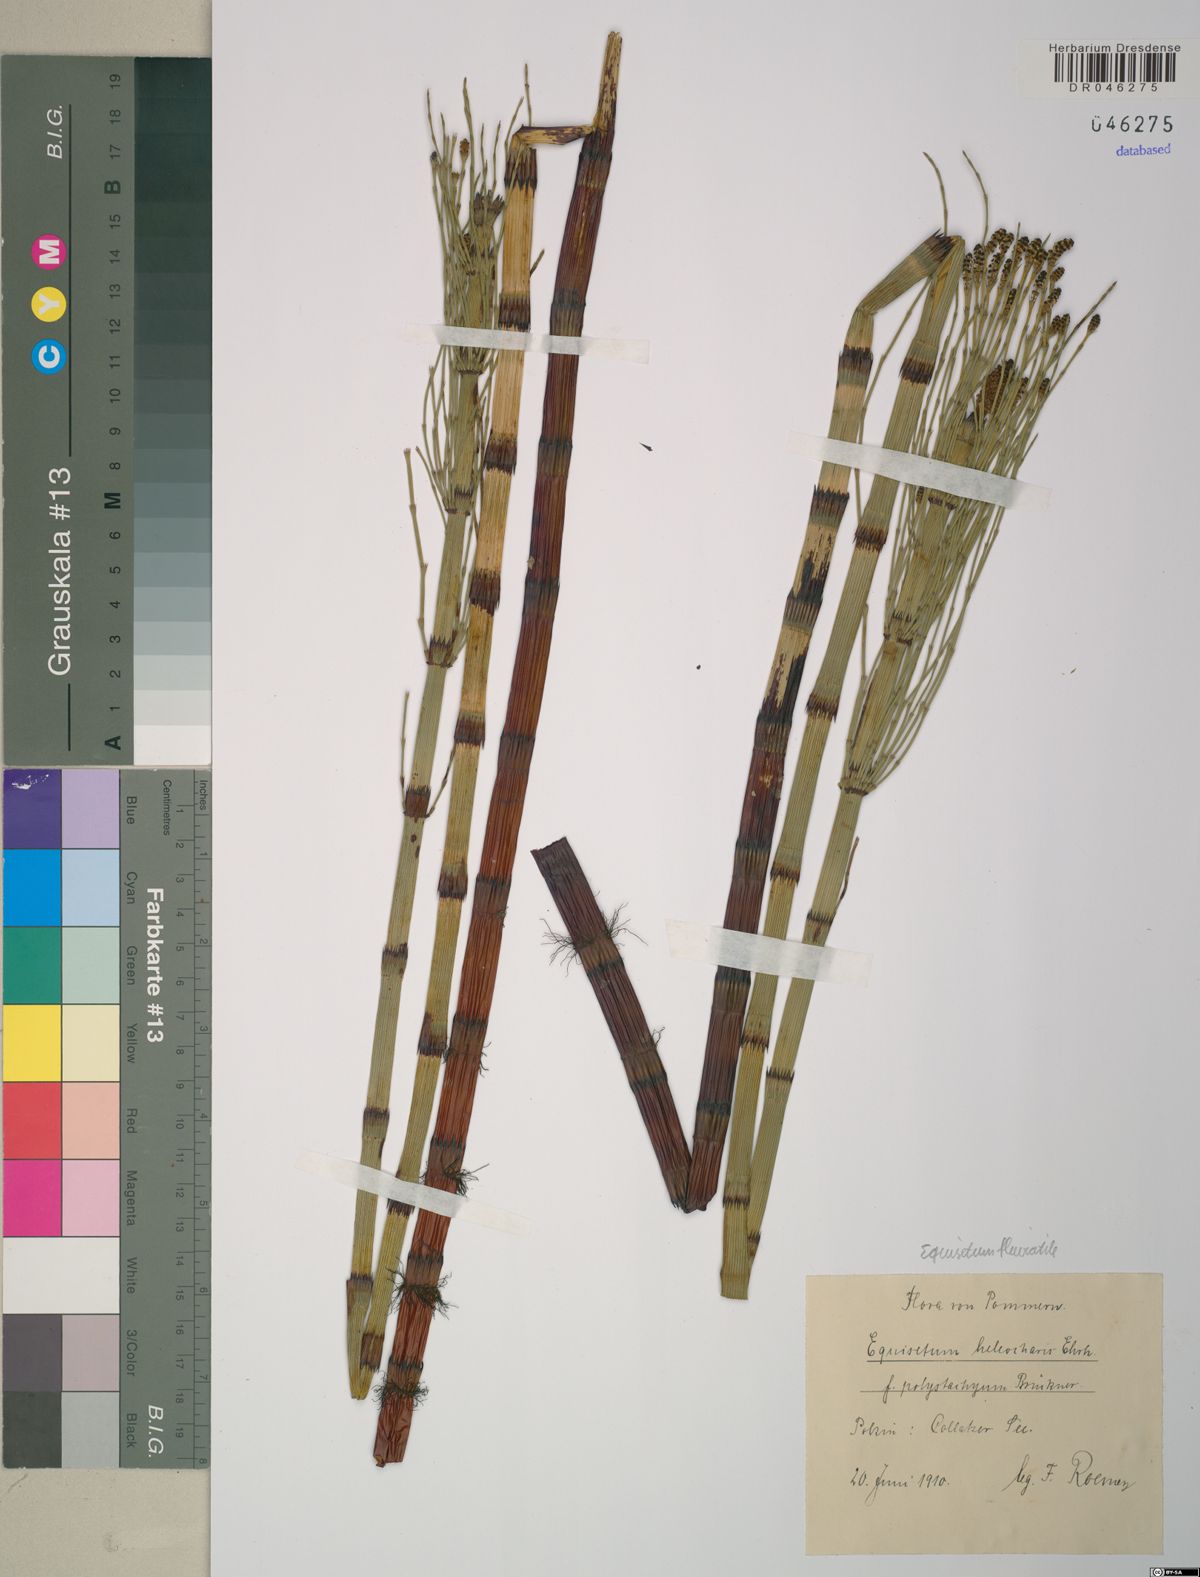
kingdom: Plantae
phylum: Tracheophyta
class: Polypodiopsida
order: Equisetales
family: Equisetaceae
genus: Equisetum
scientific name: Equisetum fluviatile
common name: Water horsetail
